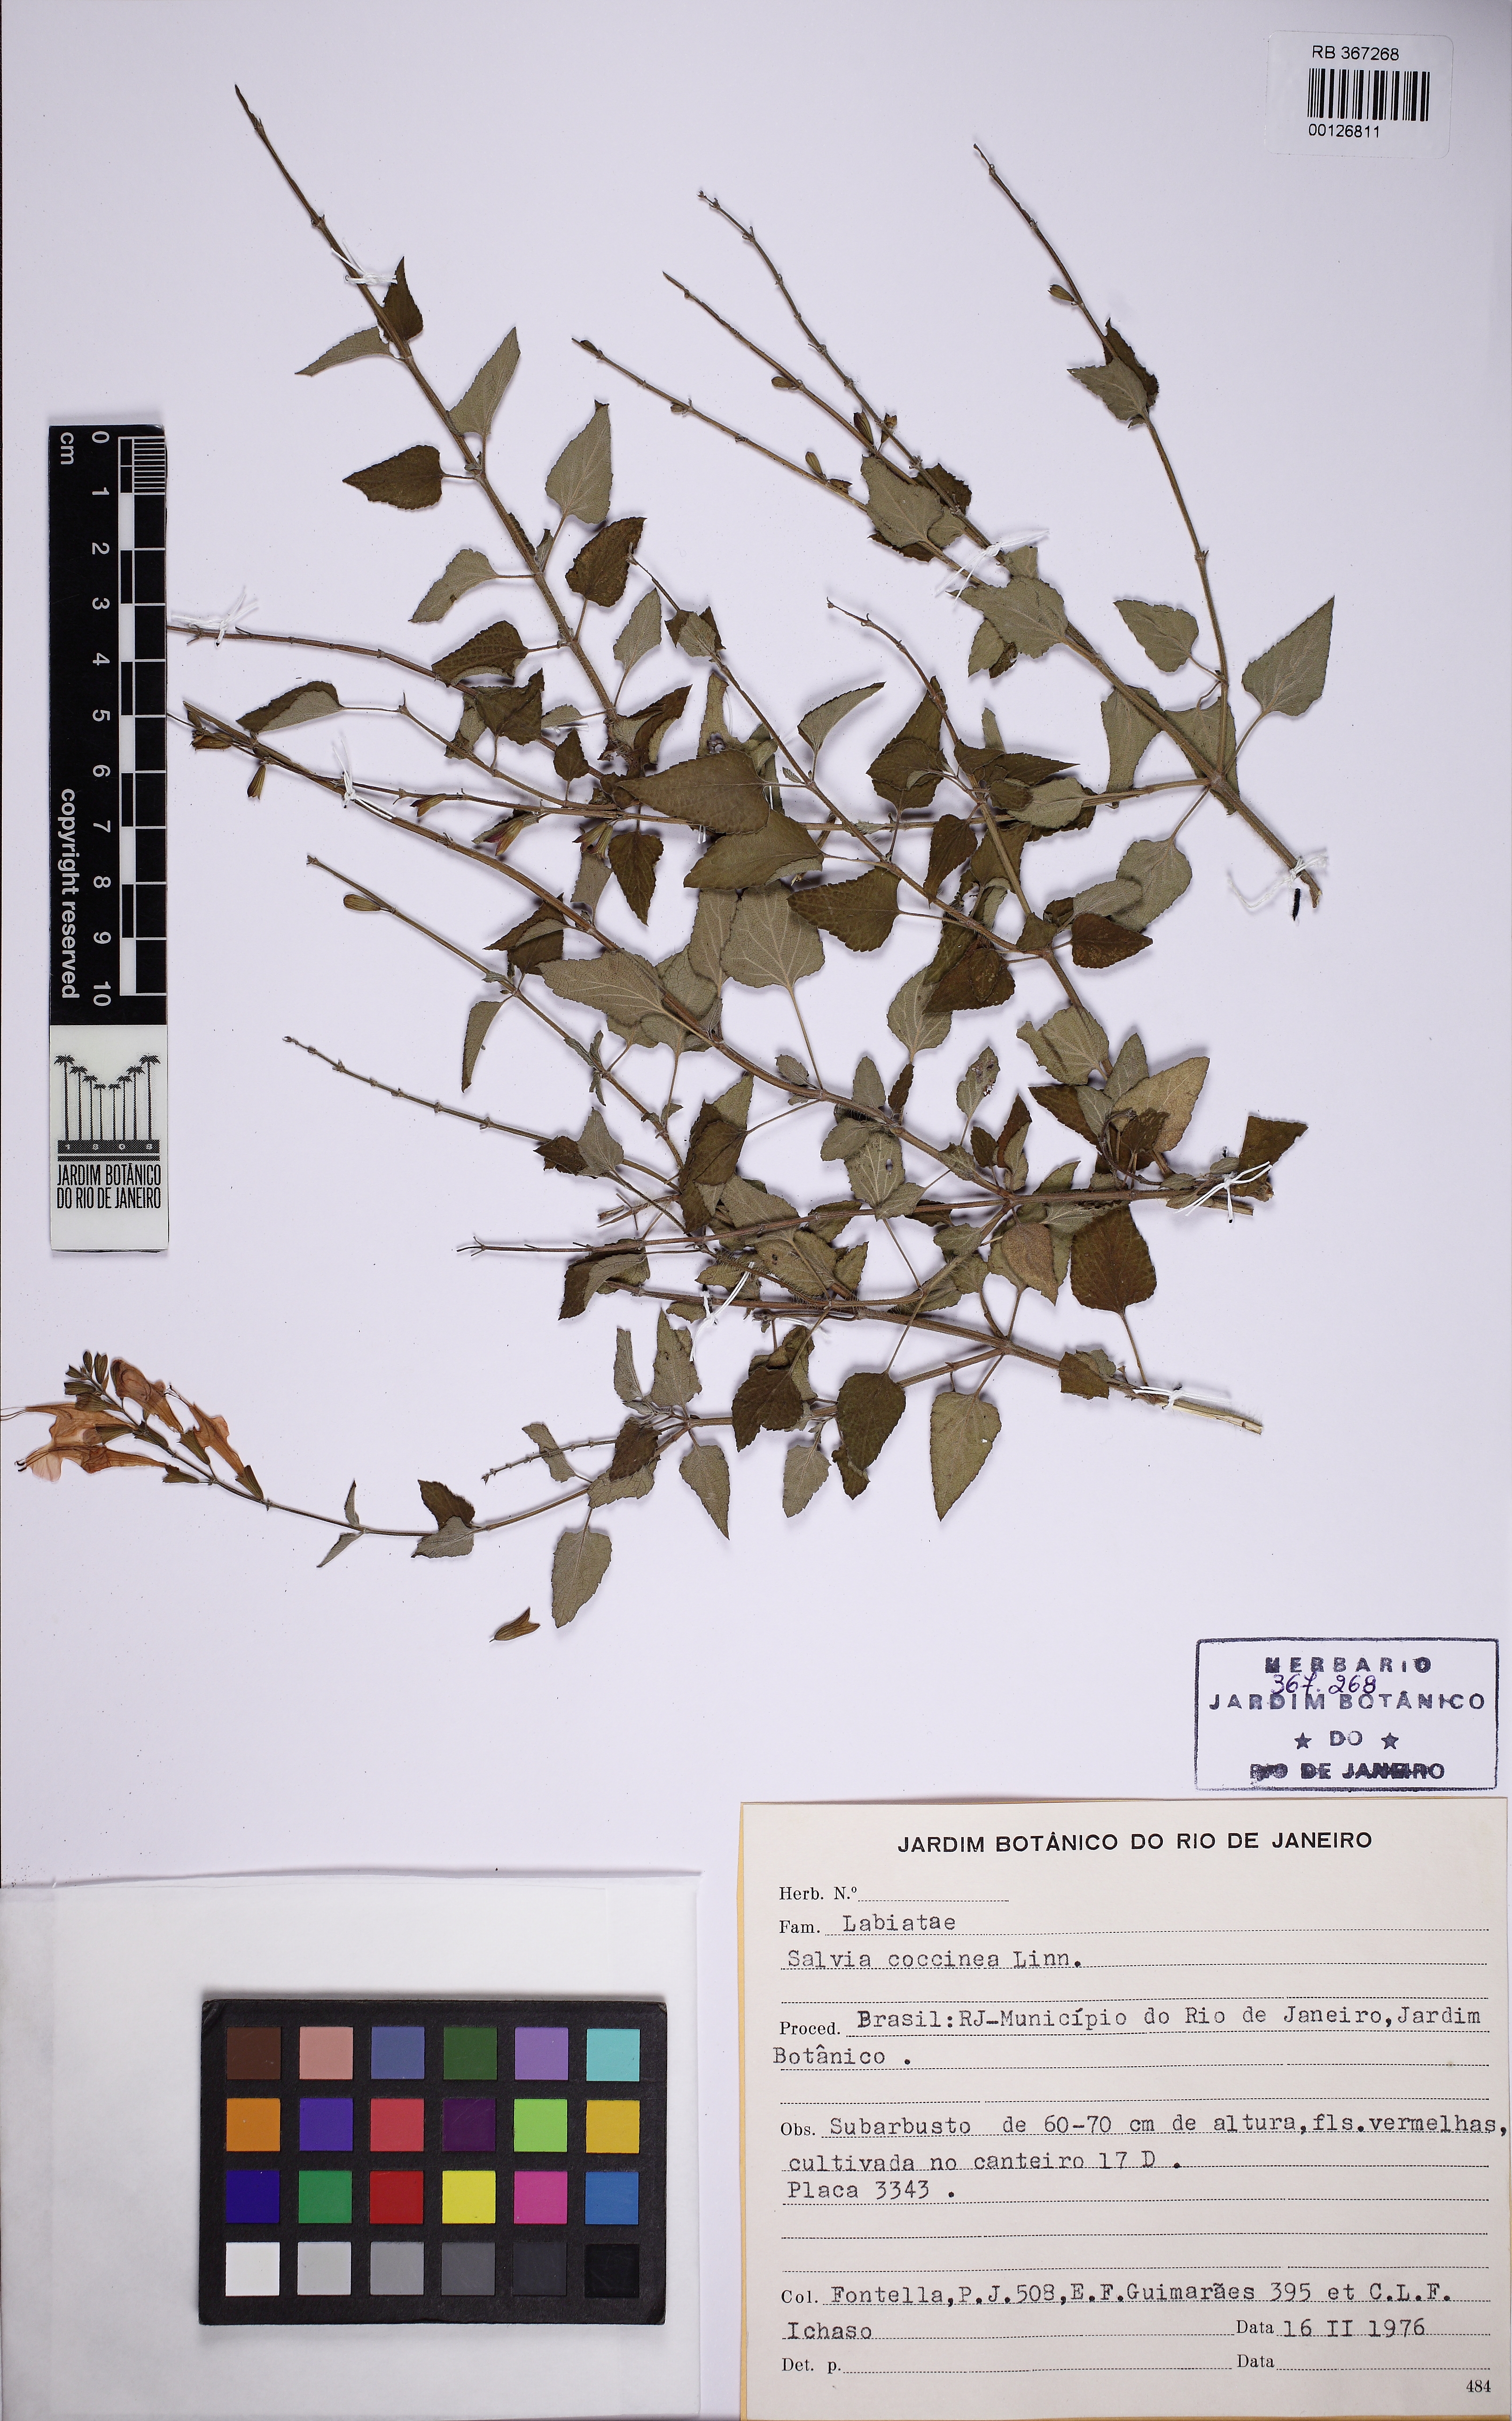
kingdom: Plantae
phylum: Tracheophyta
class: Magnoliopsida
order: Lamiales
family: Lamiaceae
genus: Salvia
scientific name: Salvia coccinea
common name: Blood sage
